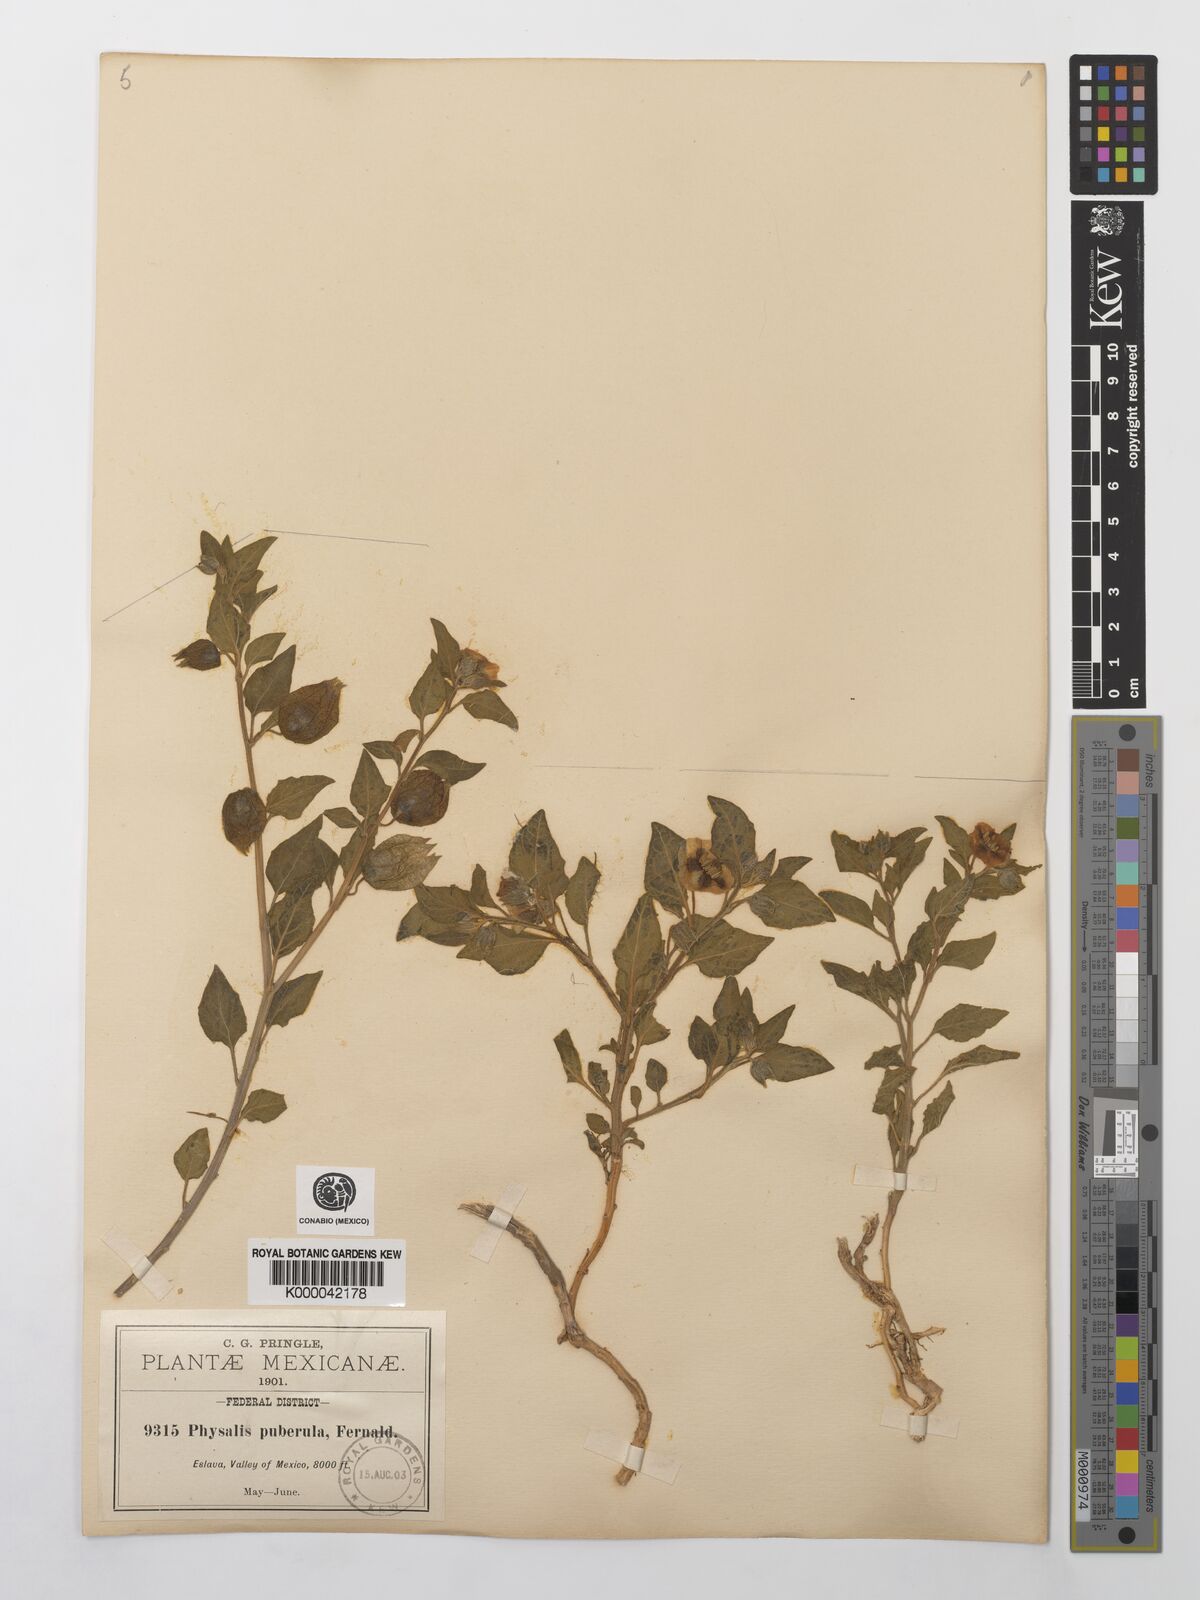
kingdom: Plantae
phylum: Tracheophyta
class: Magnoliopsida
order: Solanales
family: Solanaceae
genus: Physalis
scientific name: Physalis orizabae
